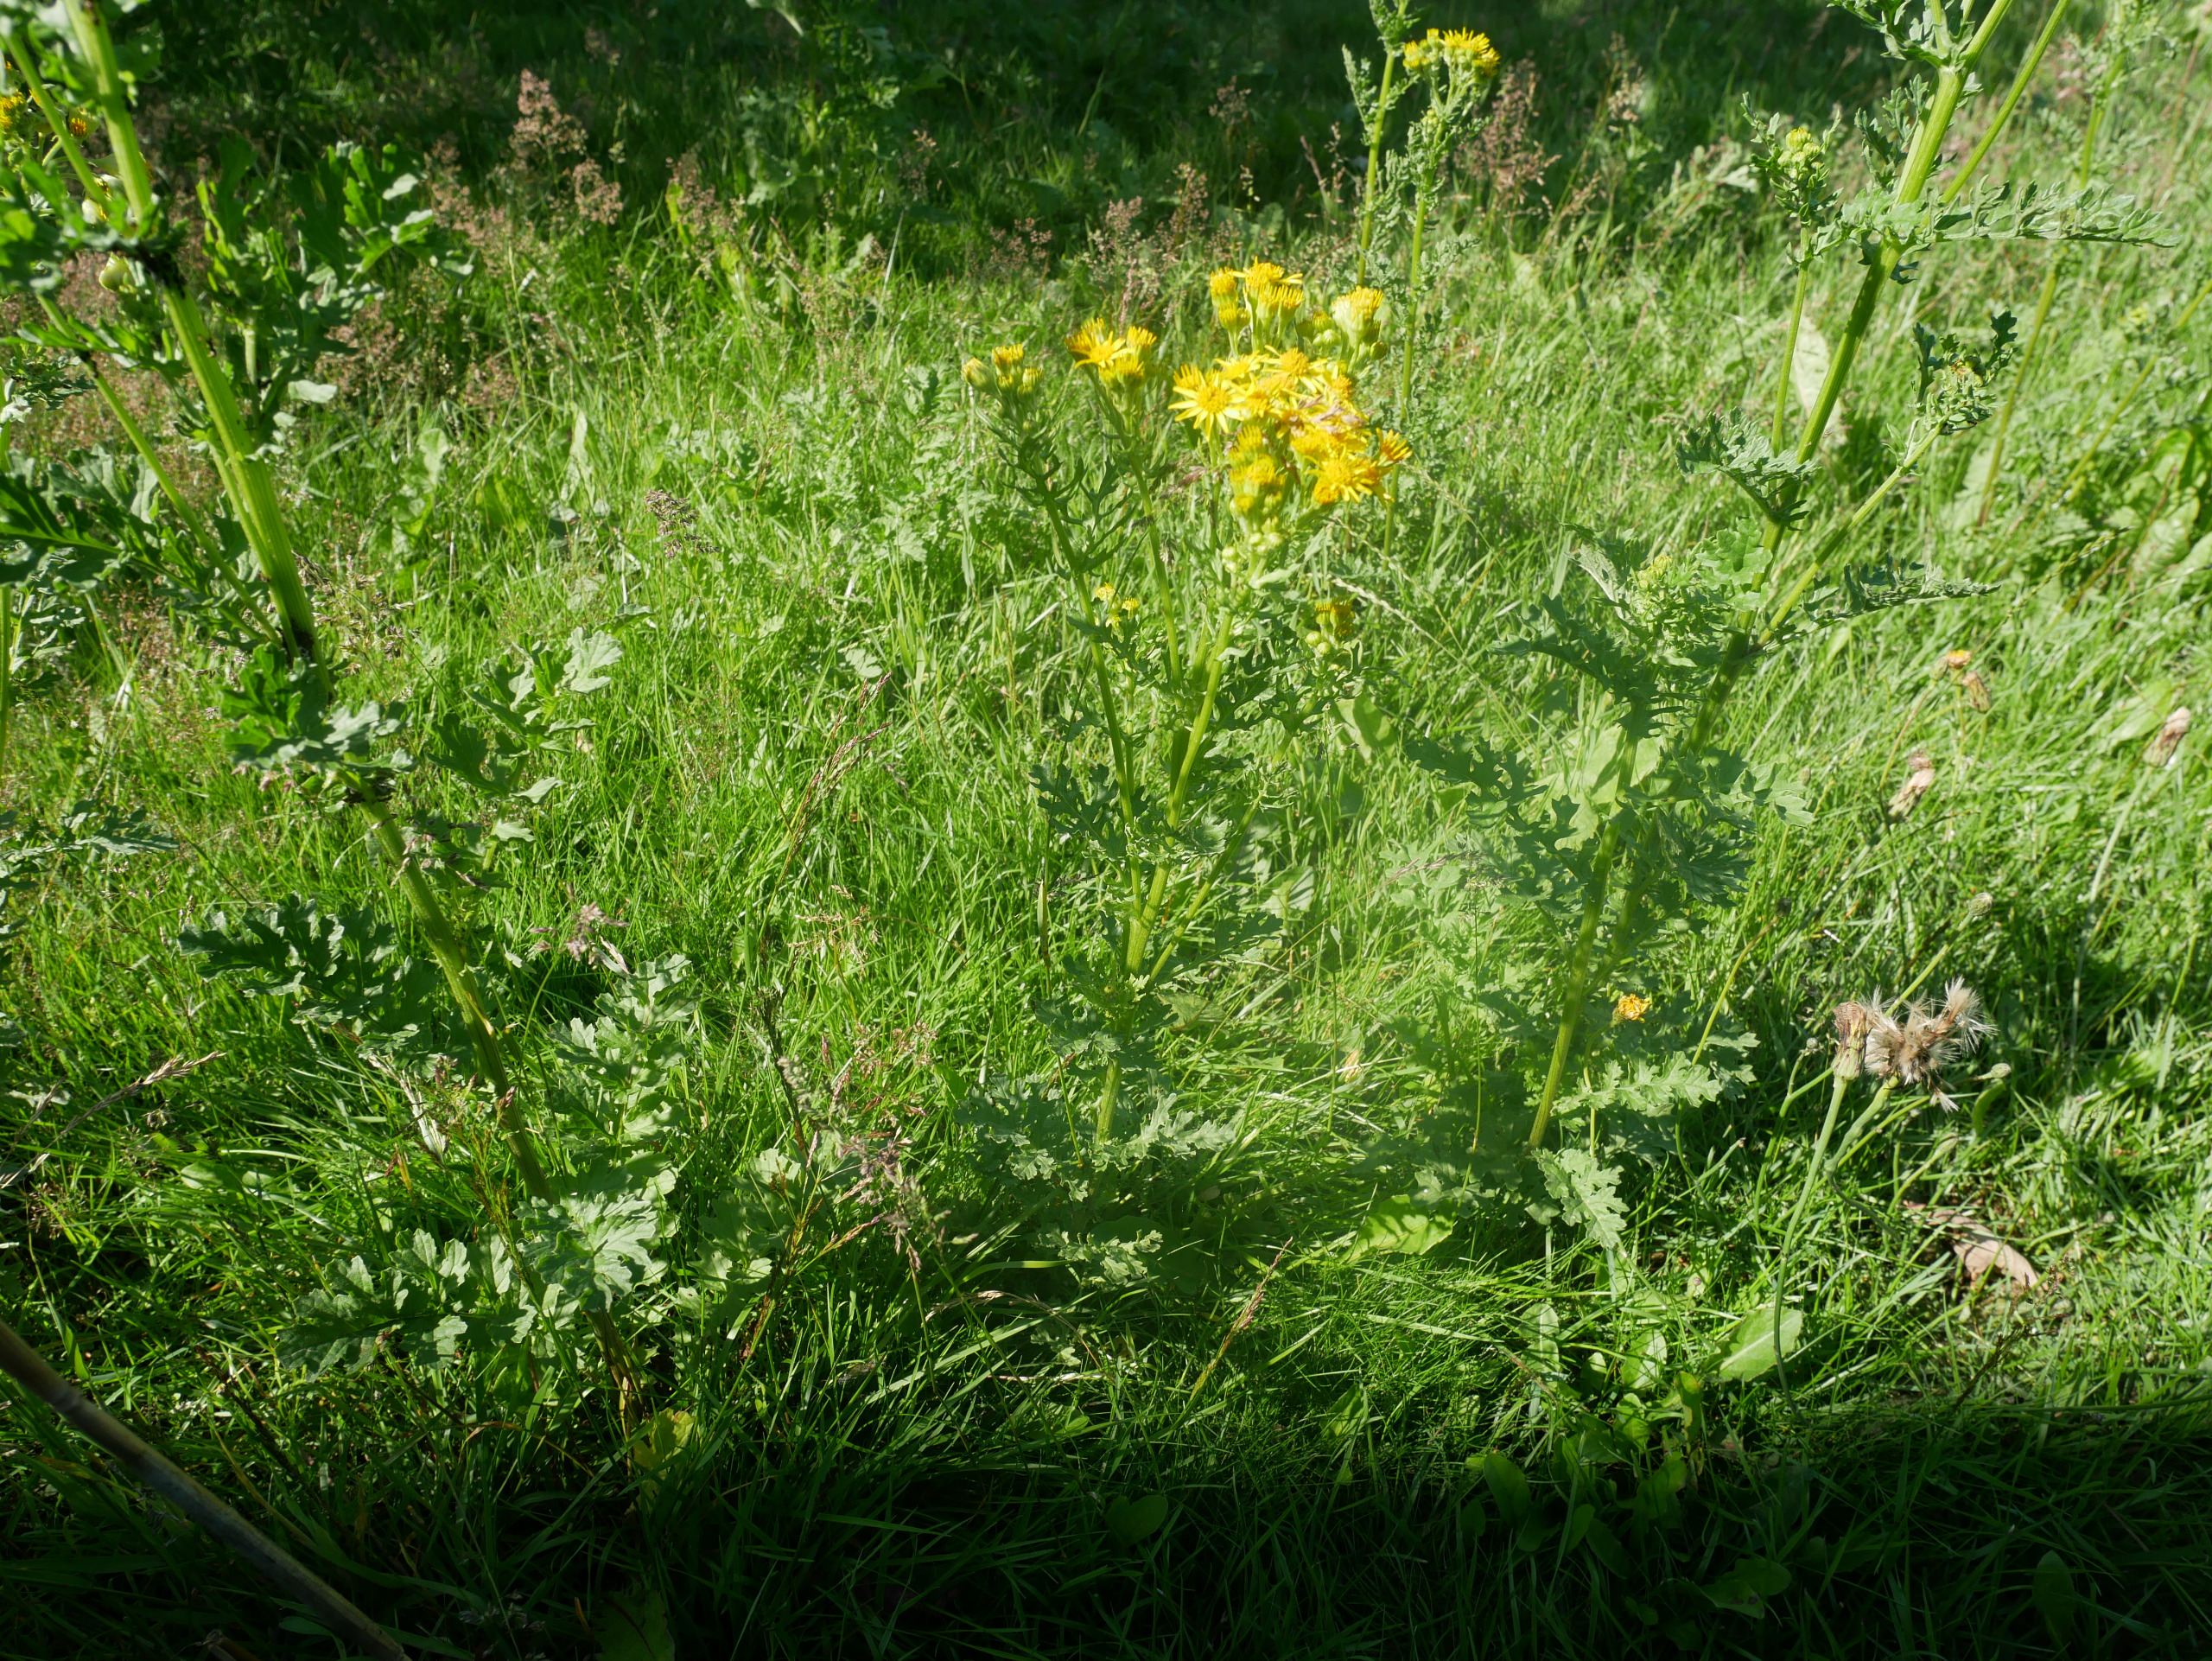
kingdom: Plantae
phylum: Tracheophyta
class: Magnoliopsida
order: Asterales
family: Asteraceae
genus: Jacobaea
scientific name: Jacobaea vulgaris
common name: Eng-brandbæger
